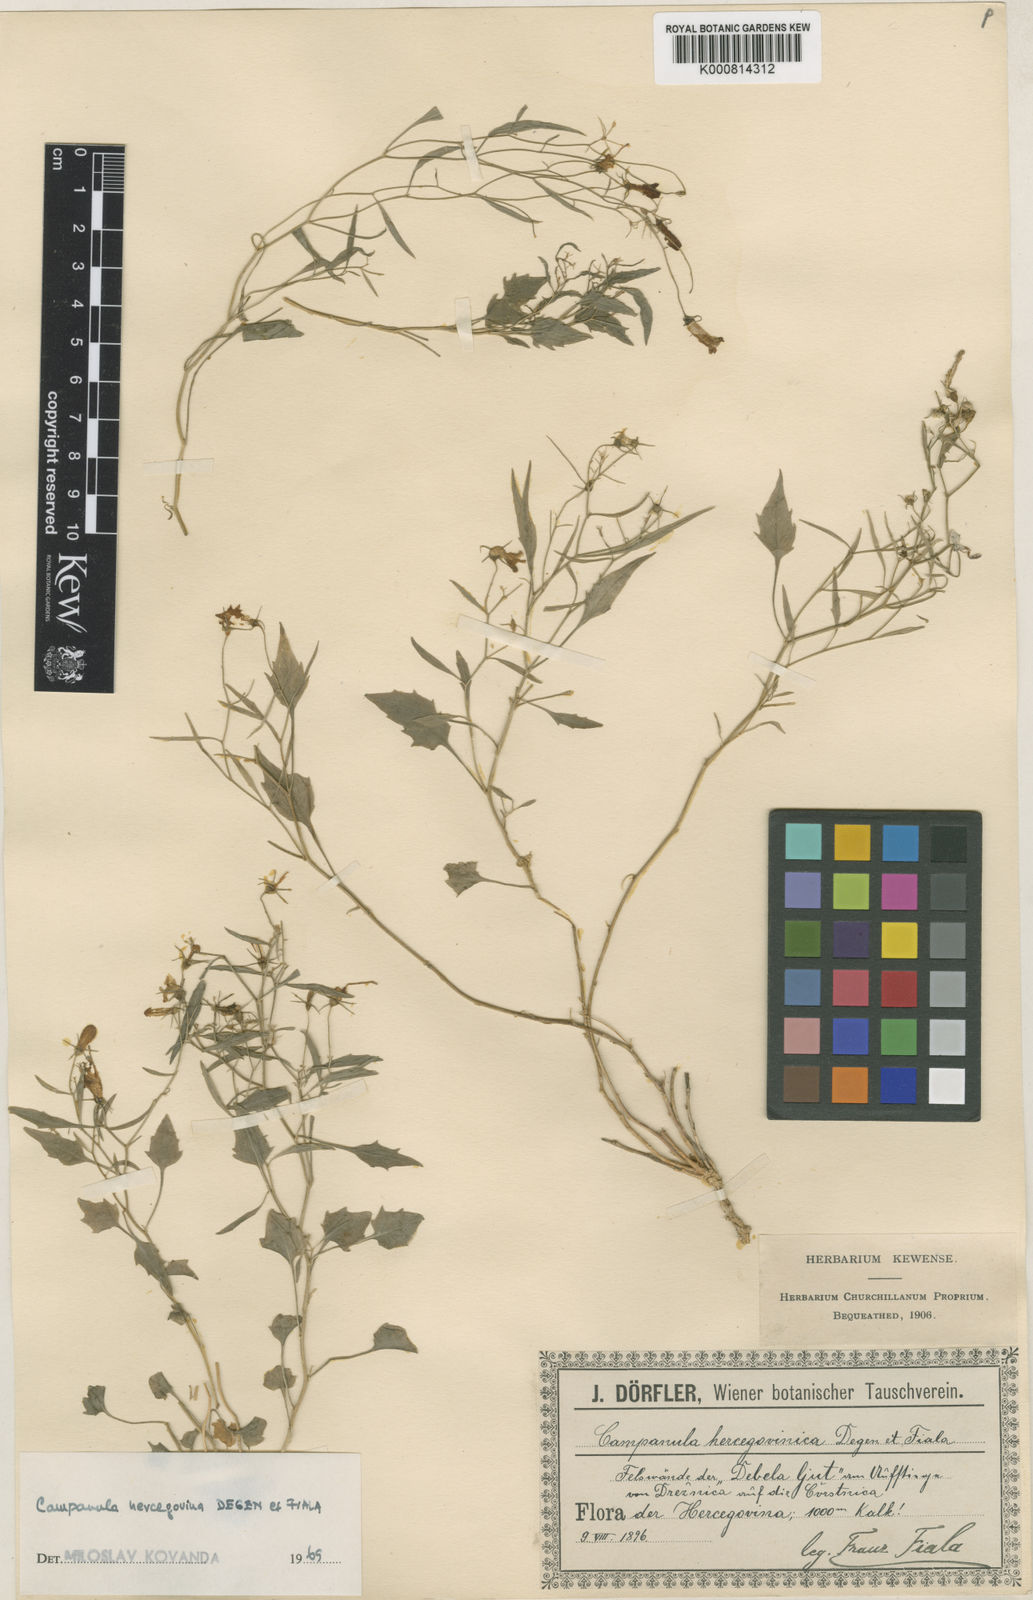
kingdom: Plantae
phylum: Tracheophyta
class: Magnoliopsida
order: Asterales
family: Campanulaceae
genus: Campanula
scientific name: Campanula hercegovina
